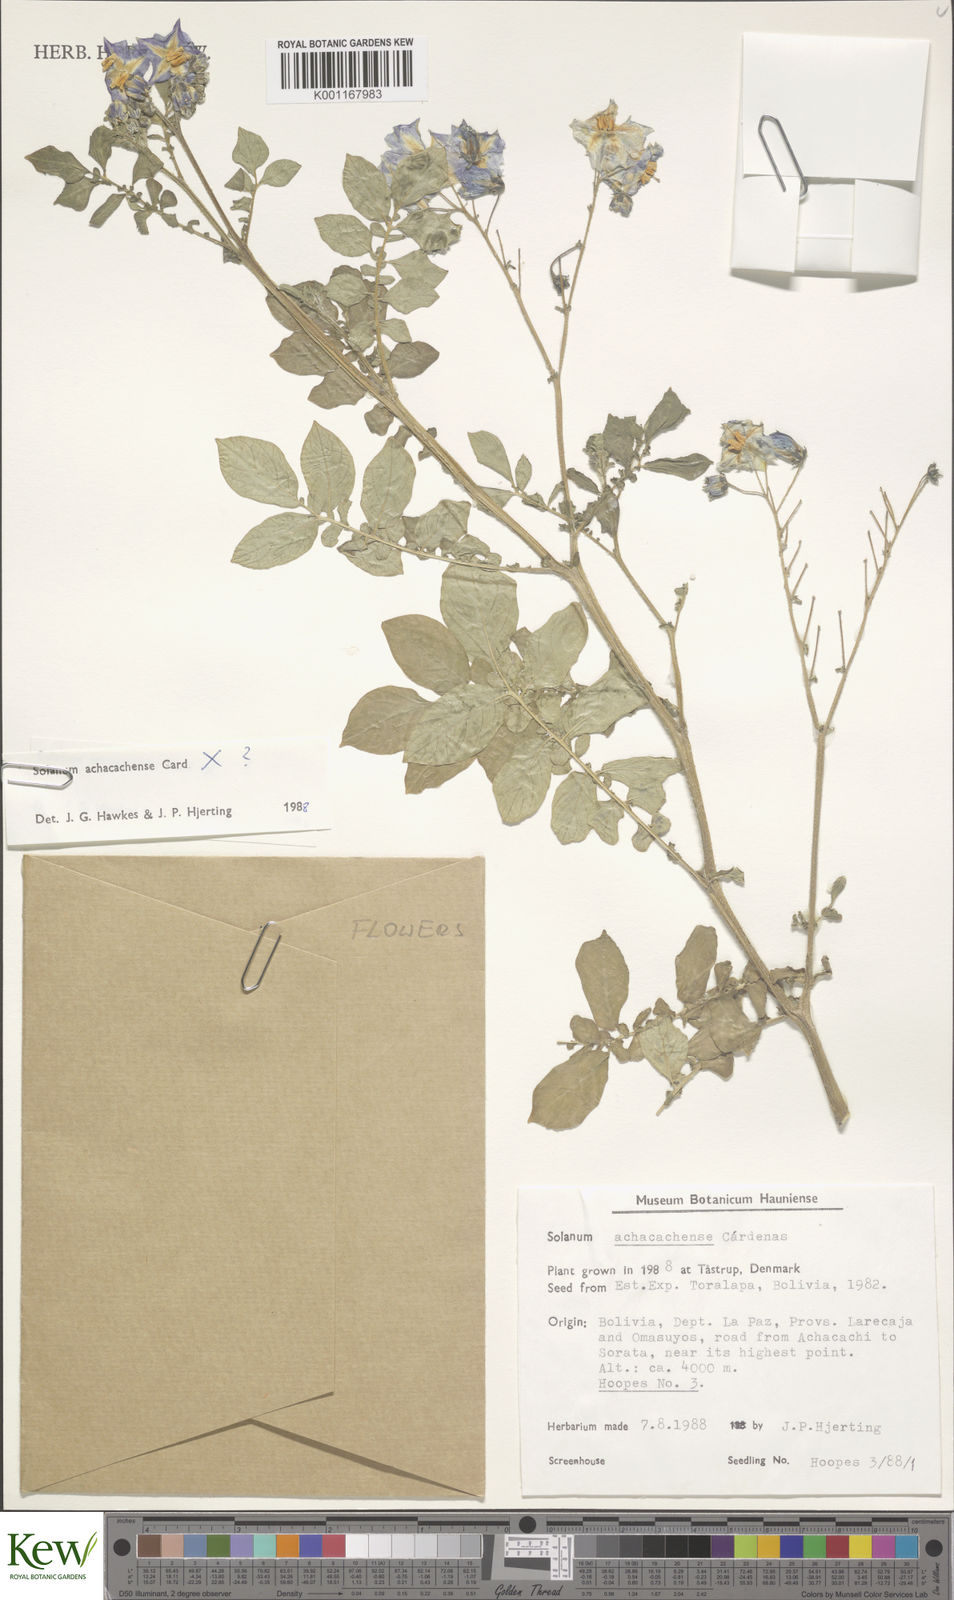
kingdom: Plantae
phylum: Tracheophyta
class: Magnoliopsida
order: Solanales
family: Solanaceae
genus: Solanum
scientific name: Solanum
